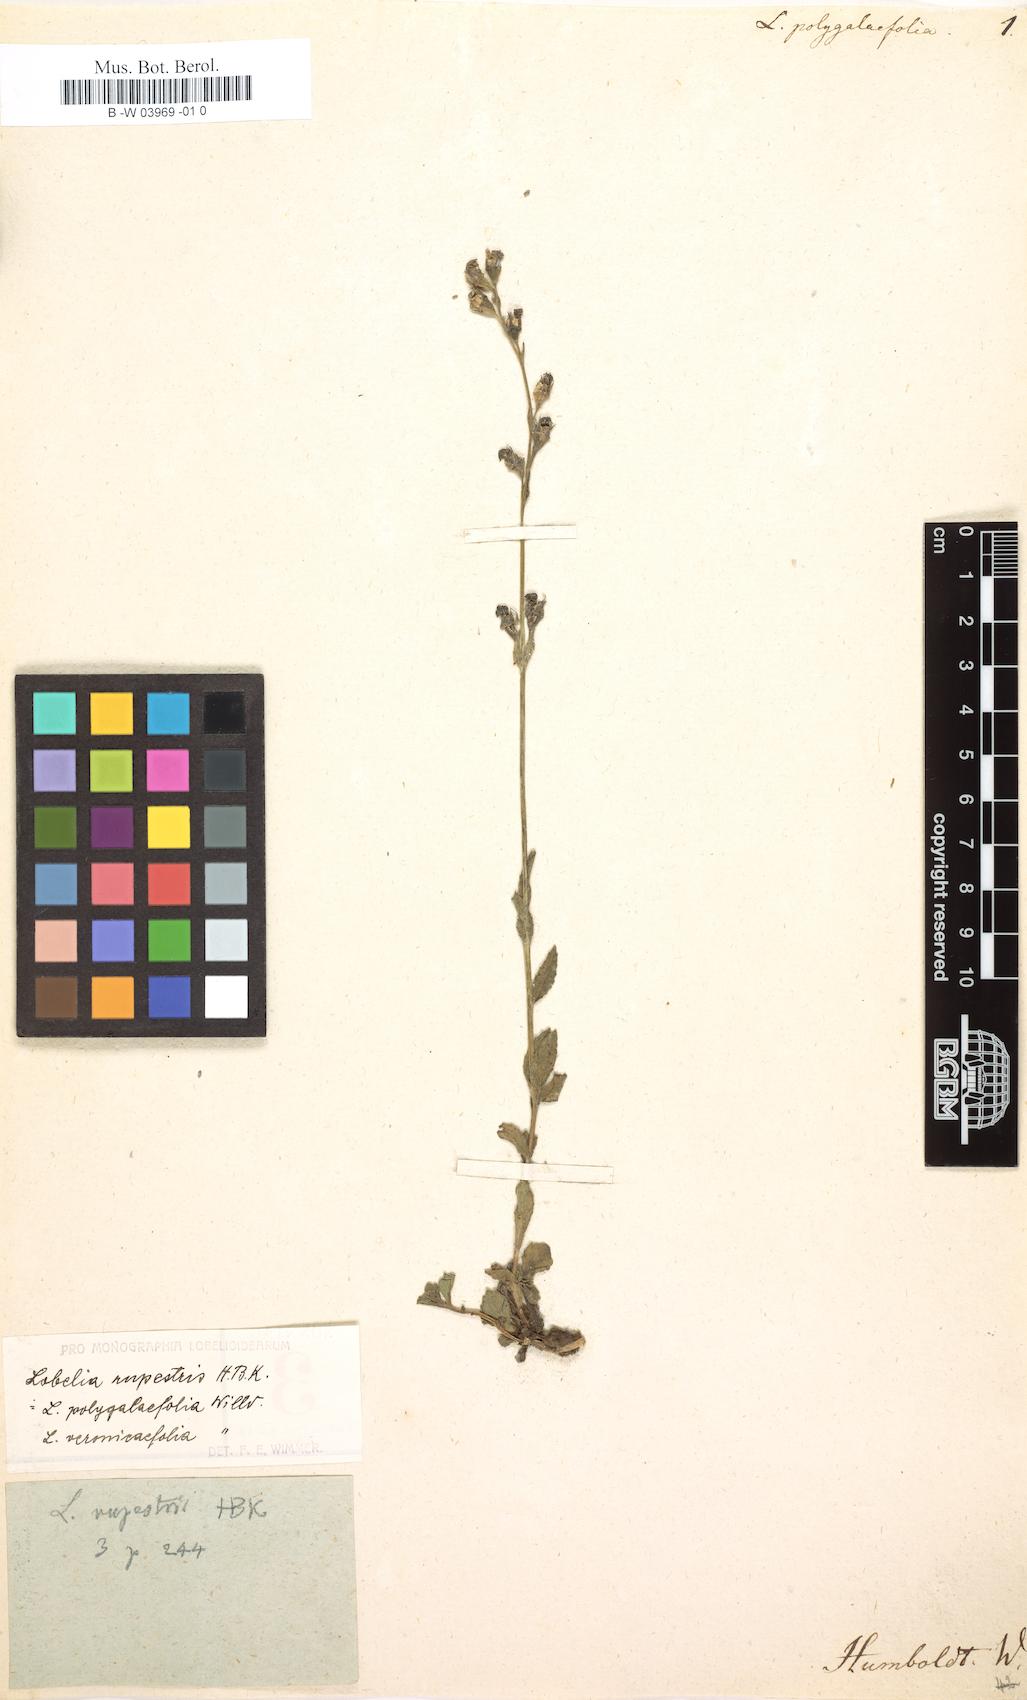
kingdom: Plantae
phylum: Tracheophyta
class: Magnoliopsida
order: Asterales
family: Campanulaceae
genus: Lobelia
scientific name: Lobelia tenera
